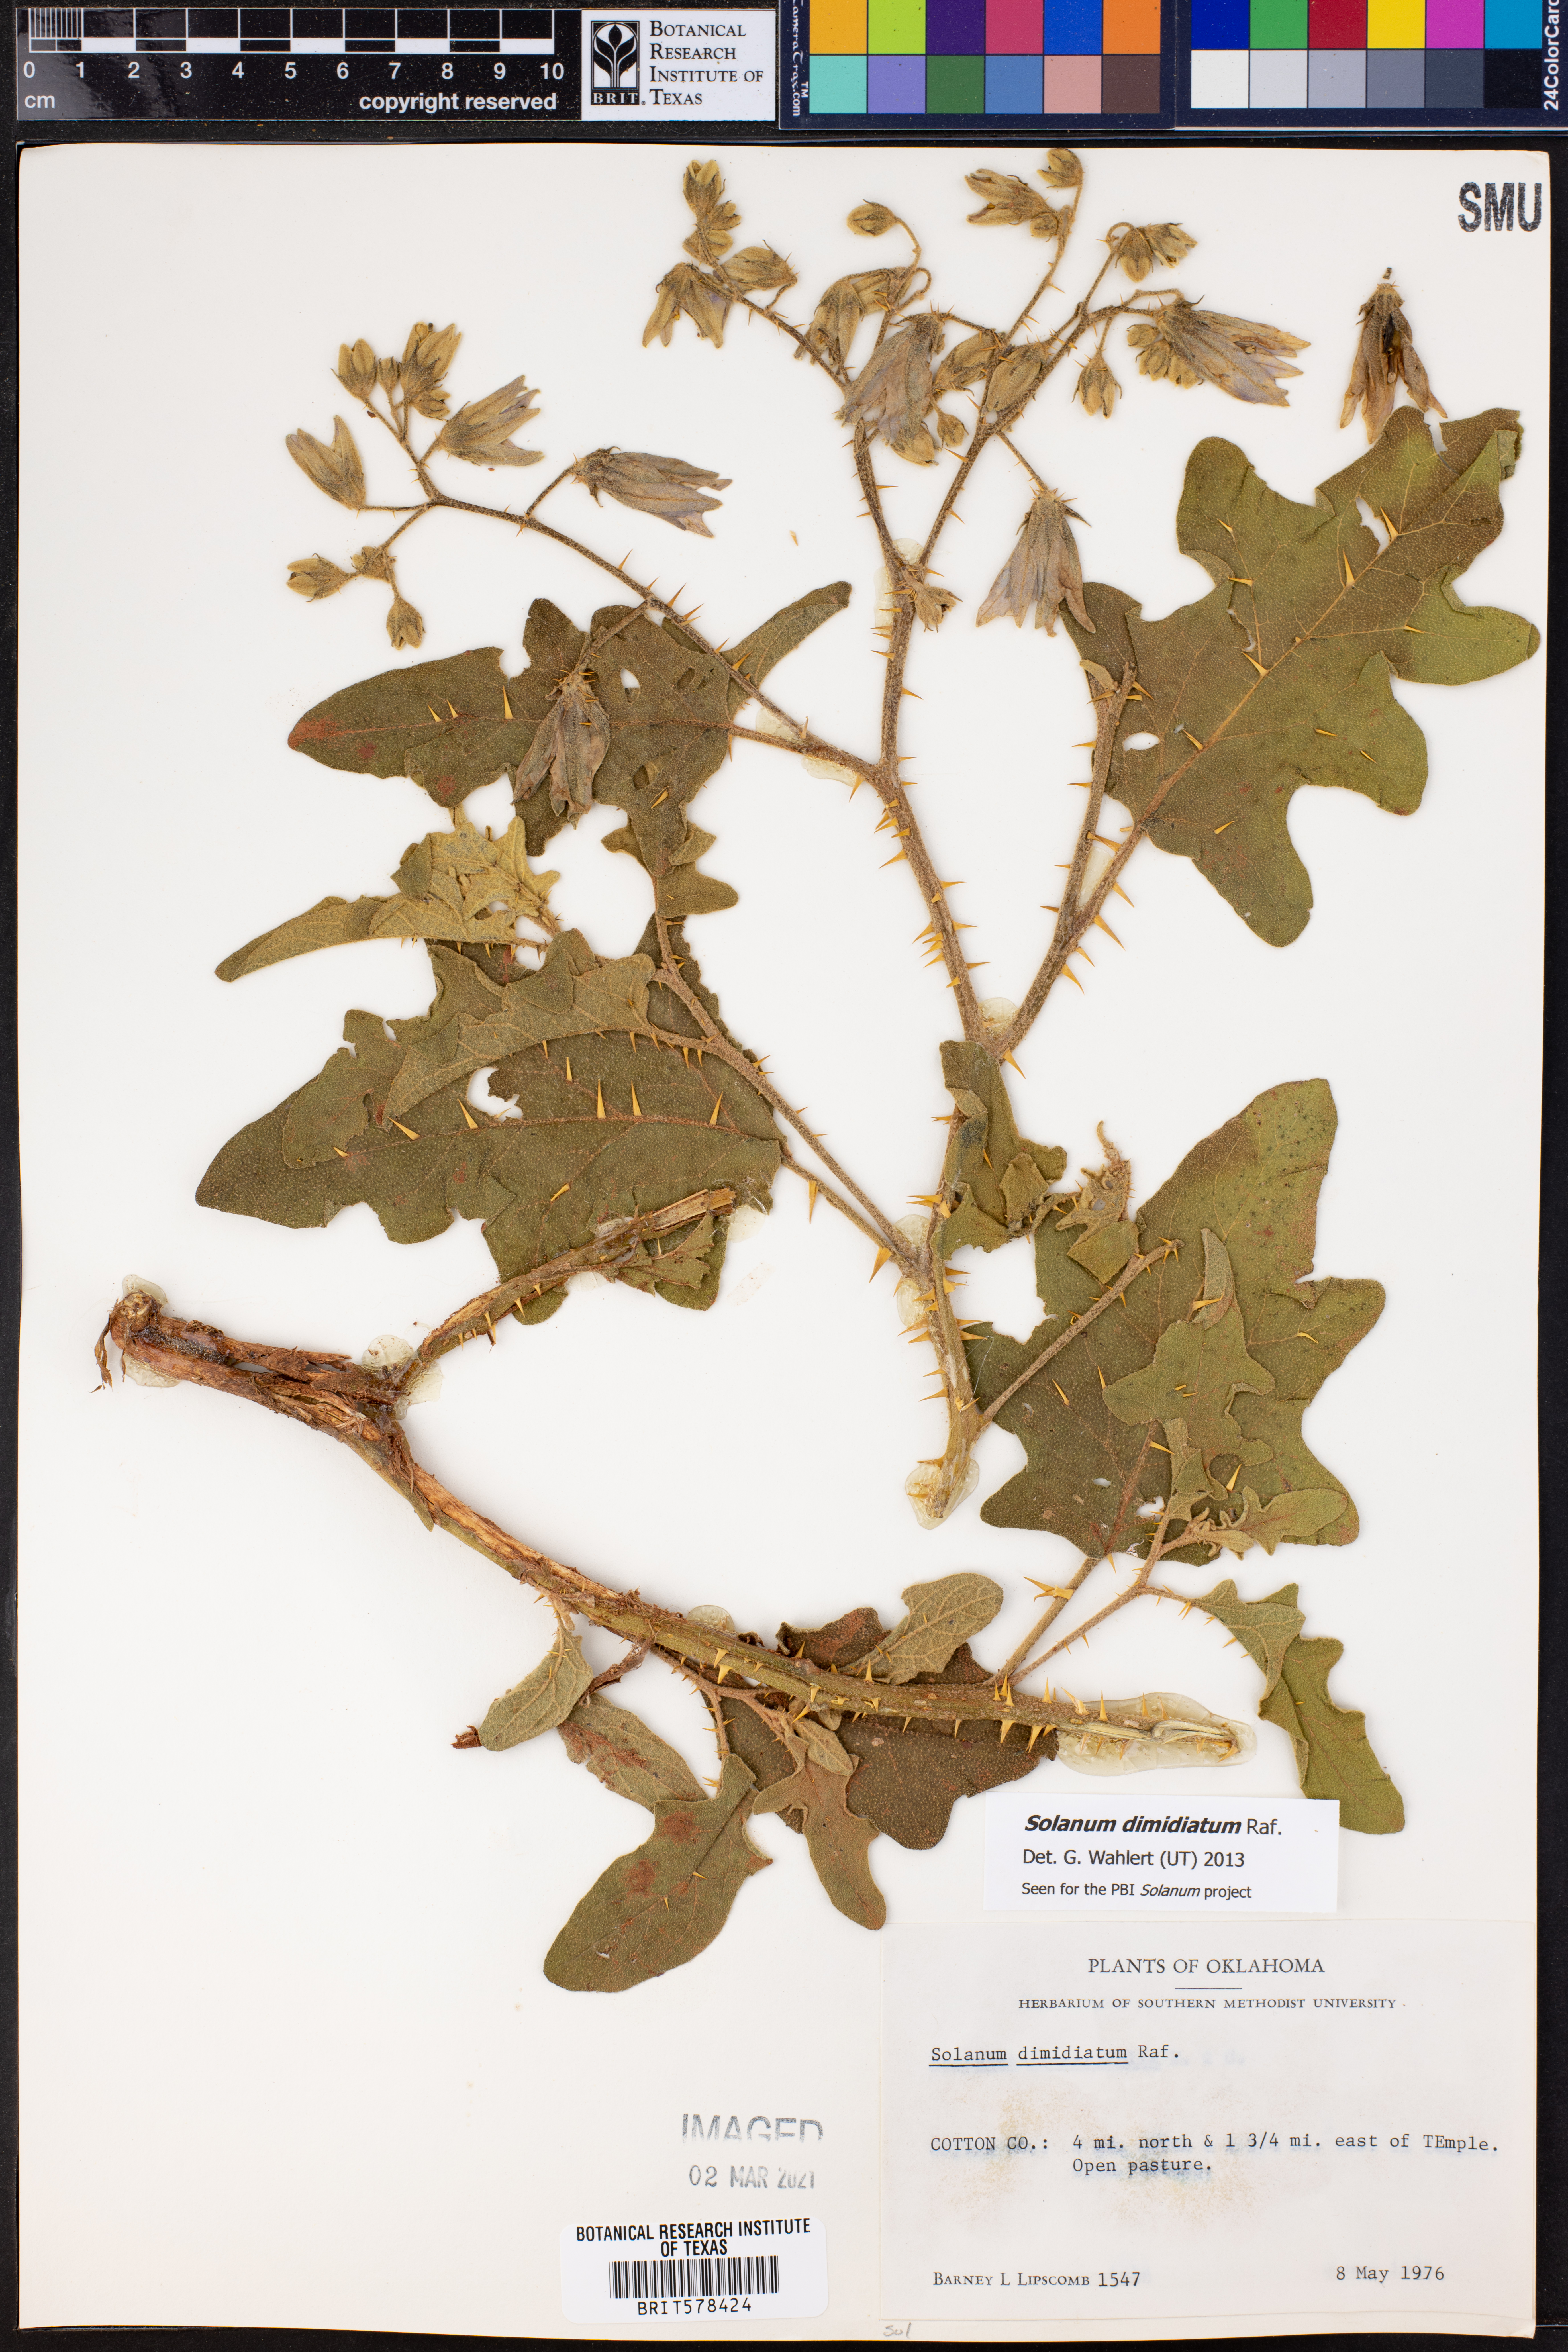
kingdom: Plantae
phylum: Tracheophyta
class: Magnoliopsida
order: Solanales
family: Solanaceae
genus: Solanum
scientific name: Solanum dimidiatum
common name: Carolina horse-nettle
